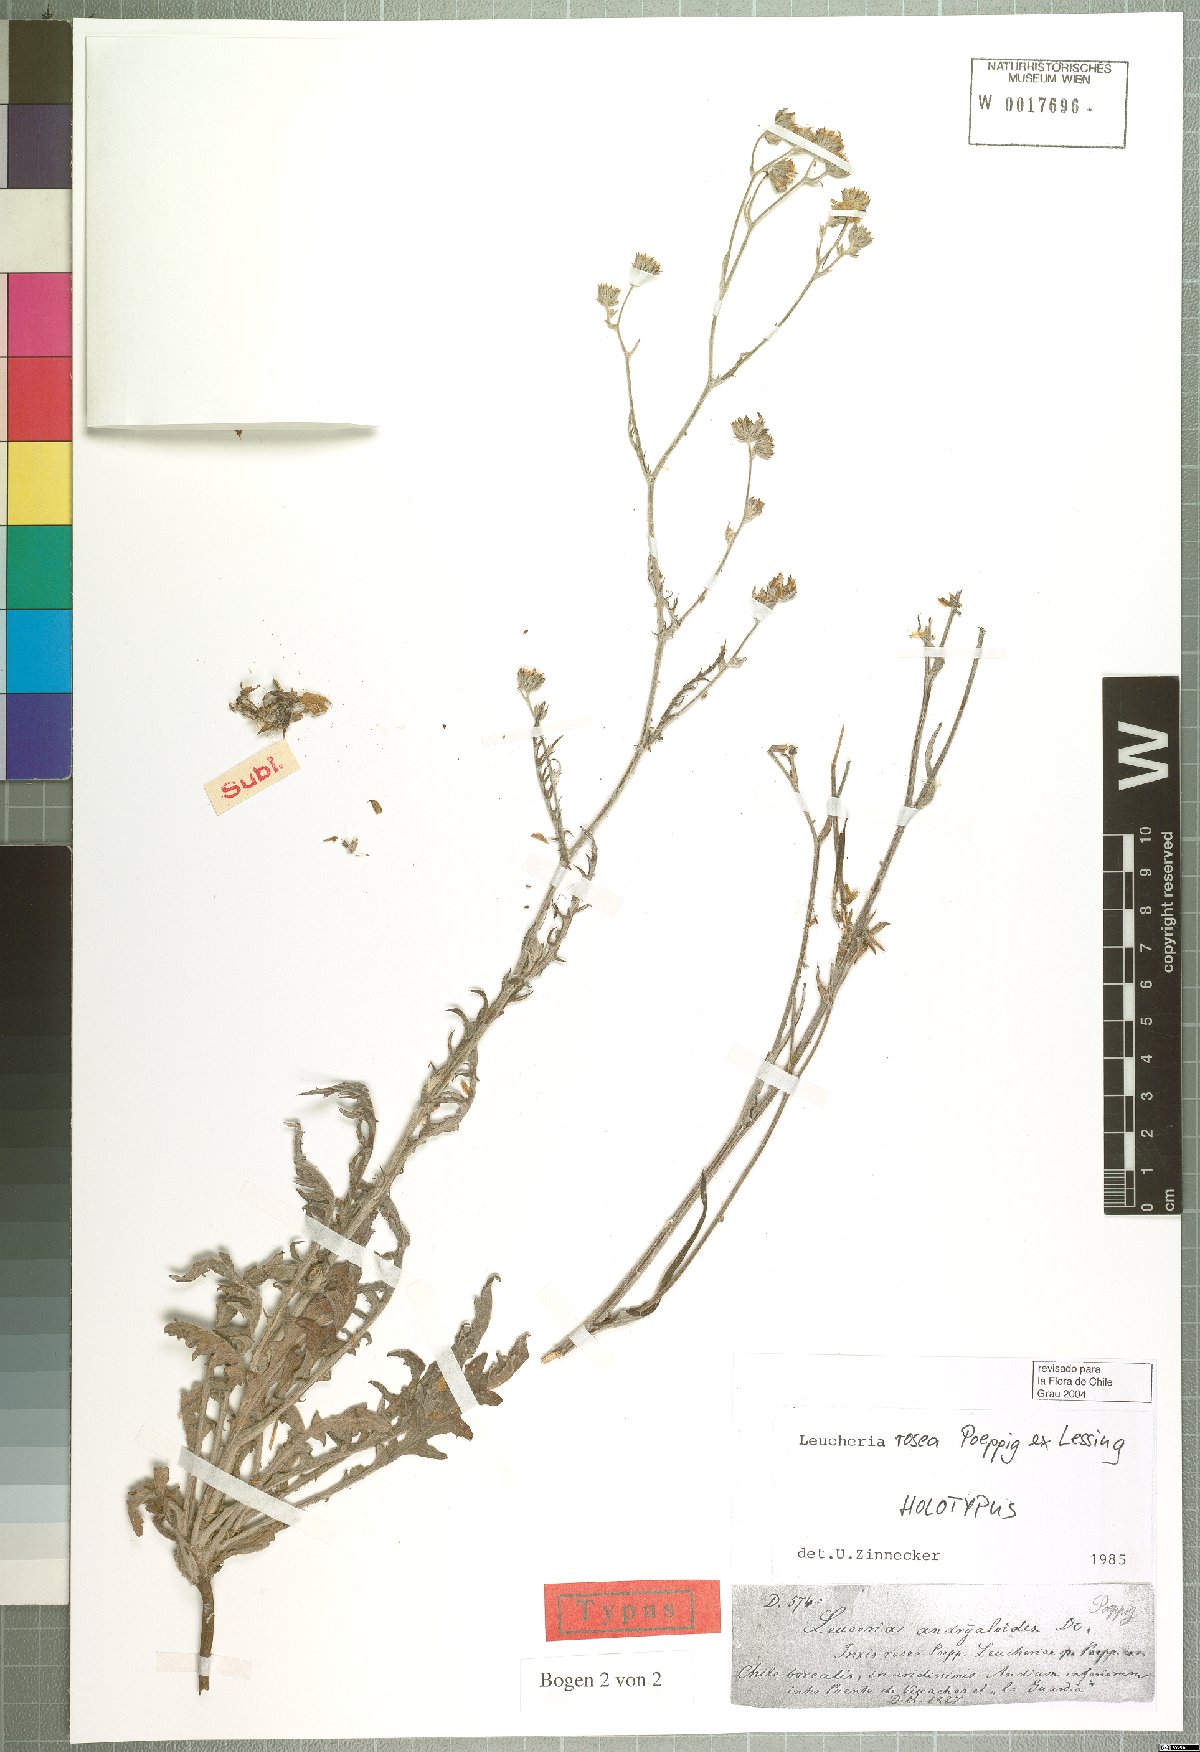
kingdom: Plantae
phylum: Tracheophyta
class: Magnoliopsida
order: Asterales
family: Asteraceae
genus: Leucheria
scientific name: Leucheria rosea
